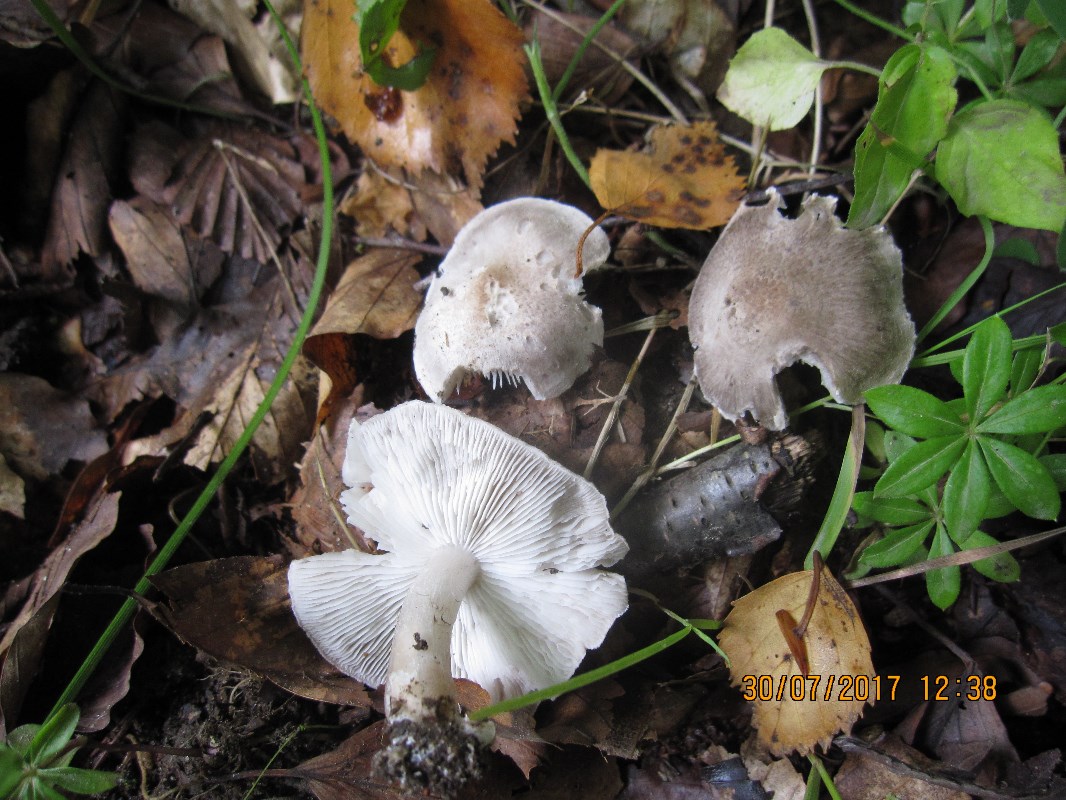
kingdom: Fungi
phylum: Basidiomycota
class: Agaricomycetes
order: Agaricales
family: Tricholomataceae
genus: Tricholoma
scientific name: Tricholoma scalpturatum
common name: gulplettet ridderhat
